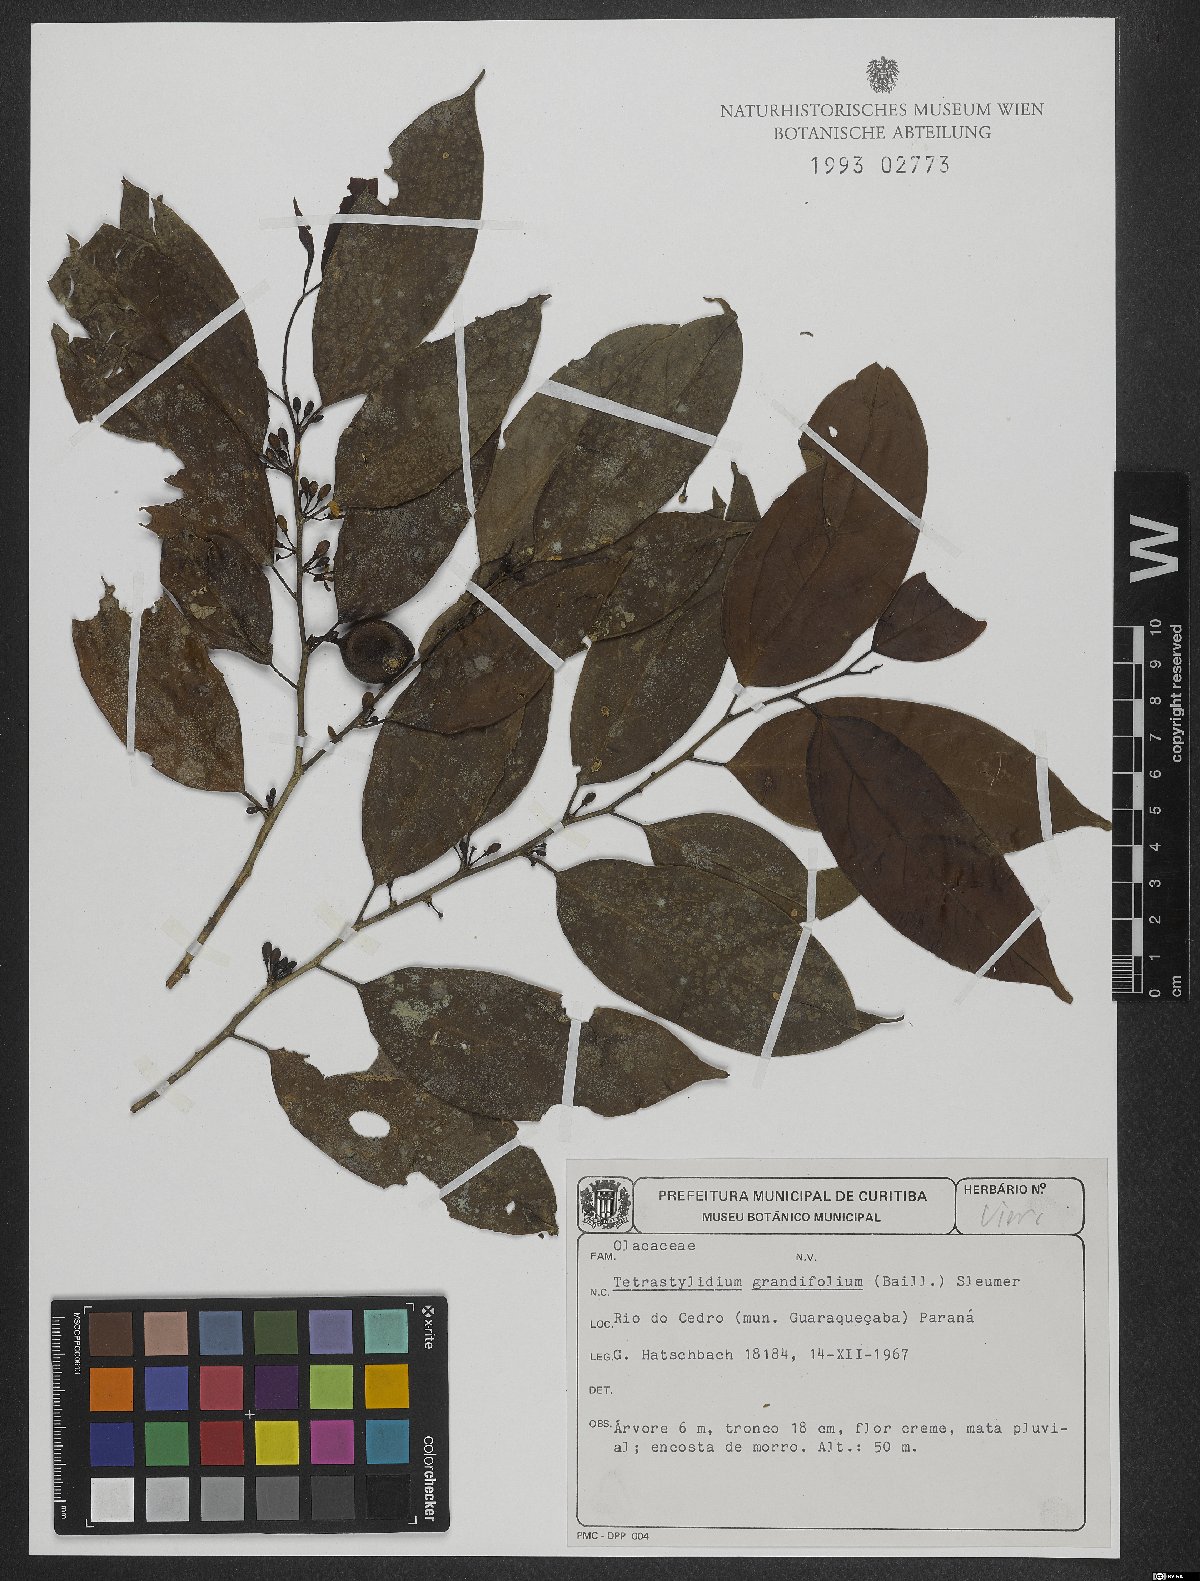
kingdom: Plantae
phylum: Tracheophyta
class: Magnoliopsida
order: Santalales
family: Strombosiaceae
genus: Tetrastylidium
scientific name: Tetrastylidium grandifolium
